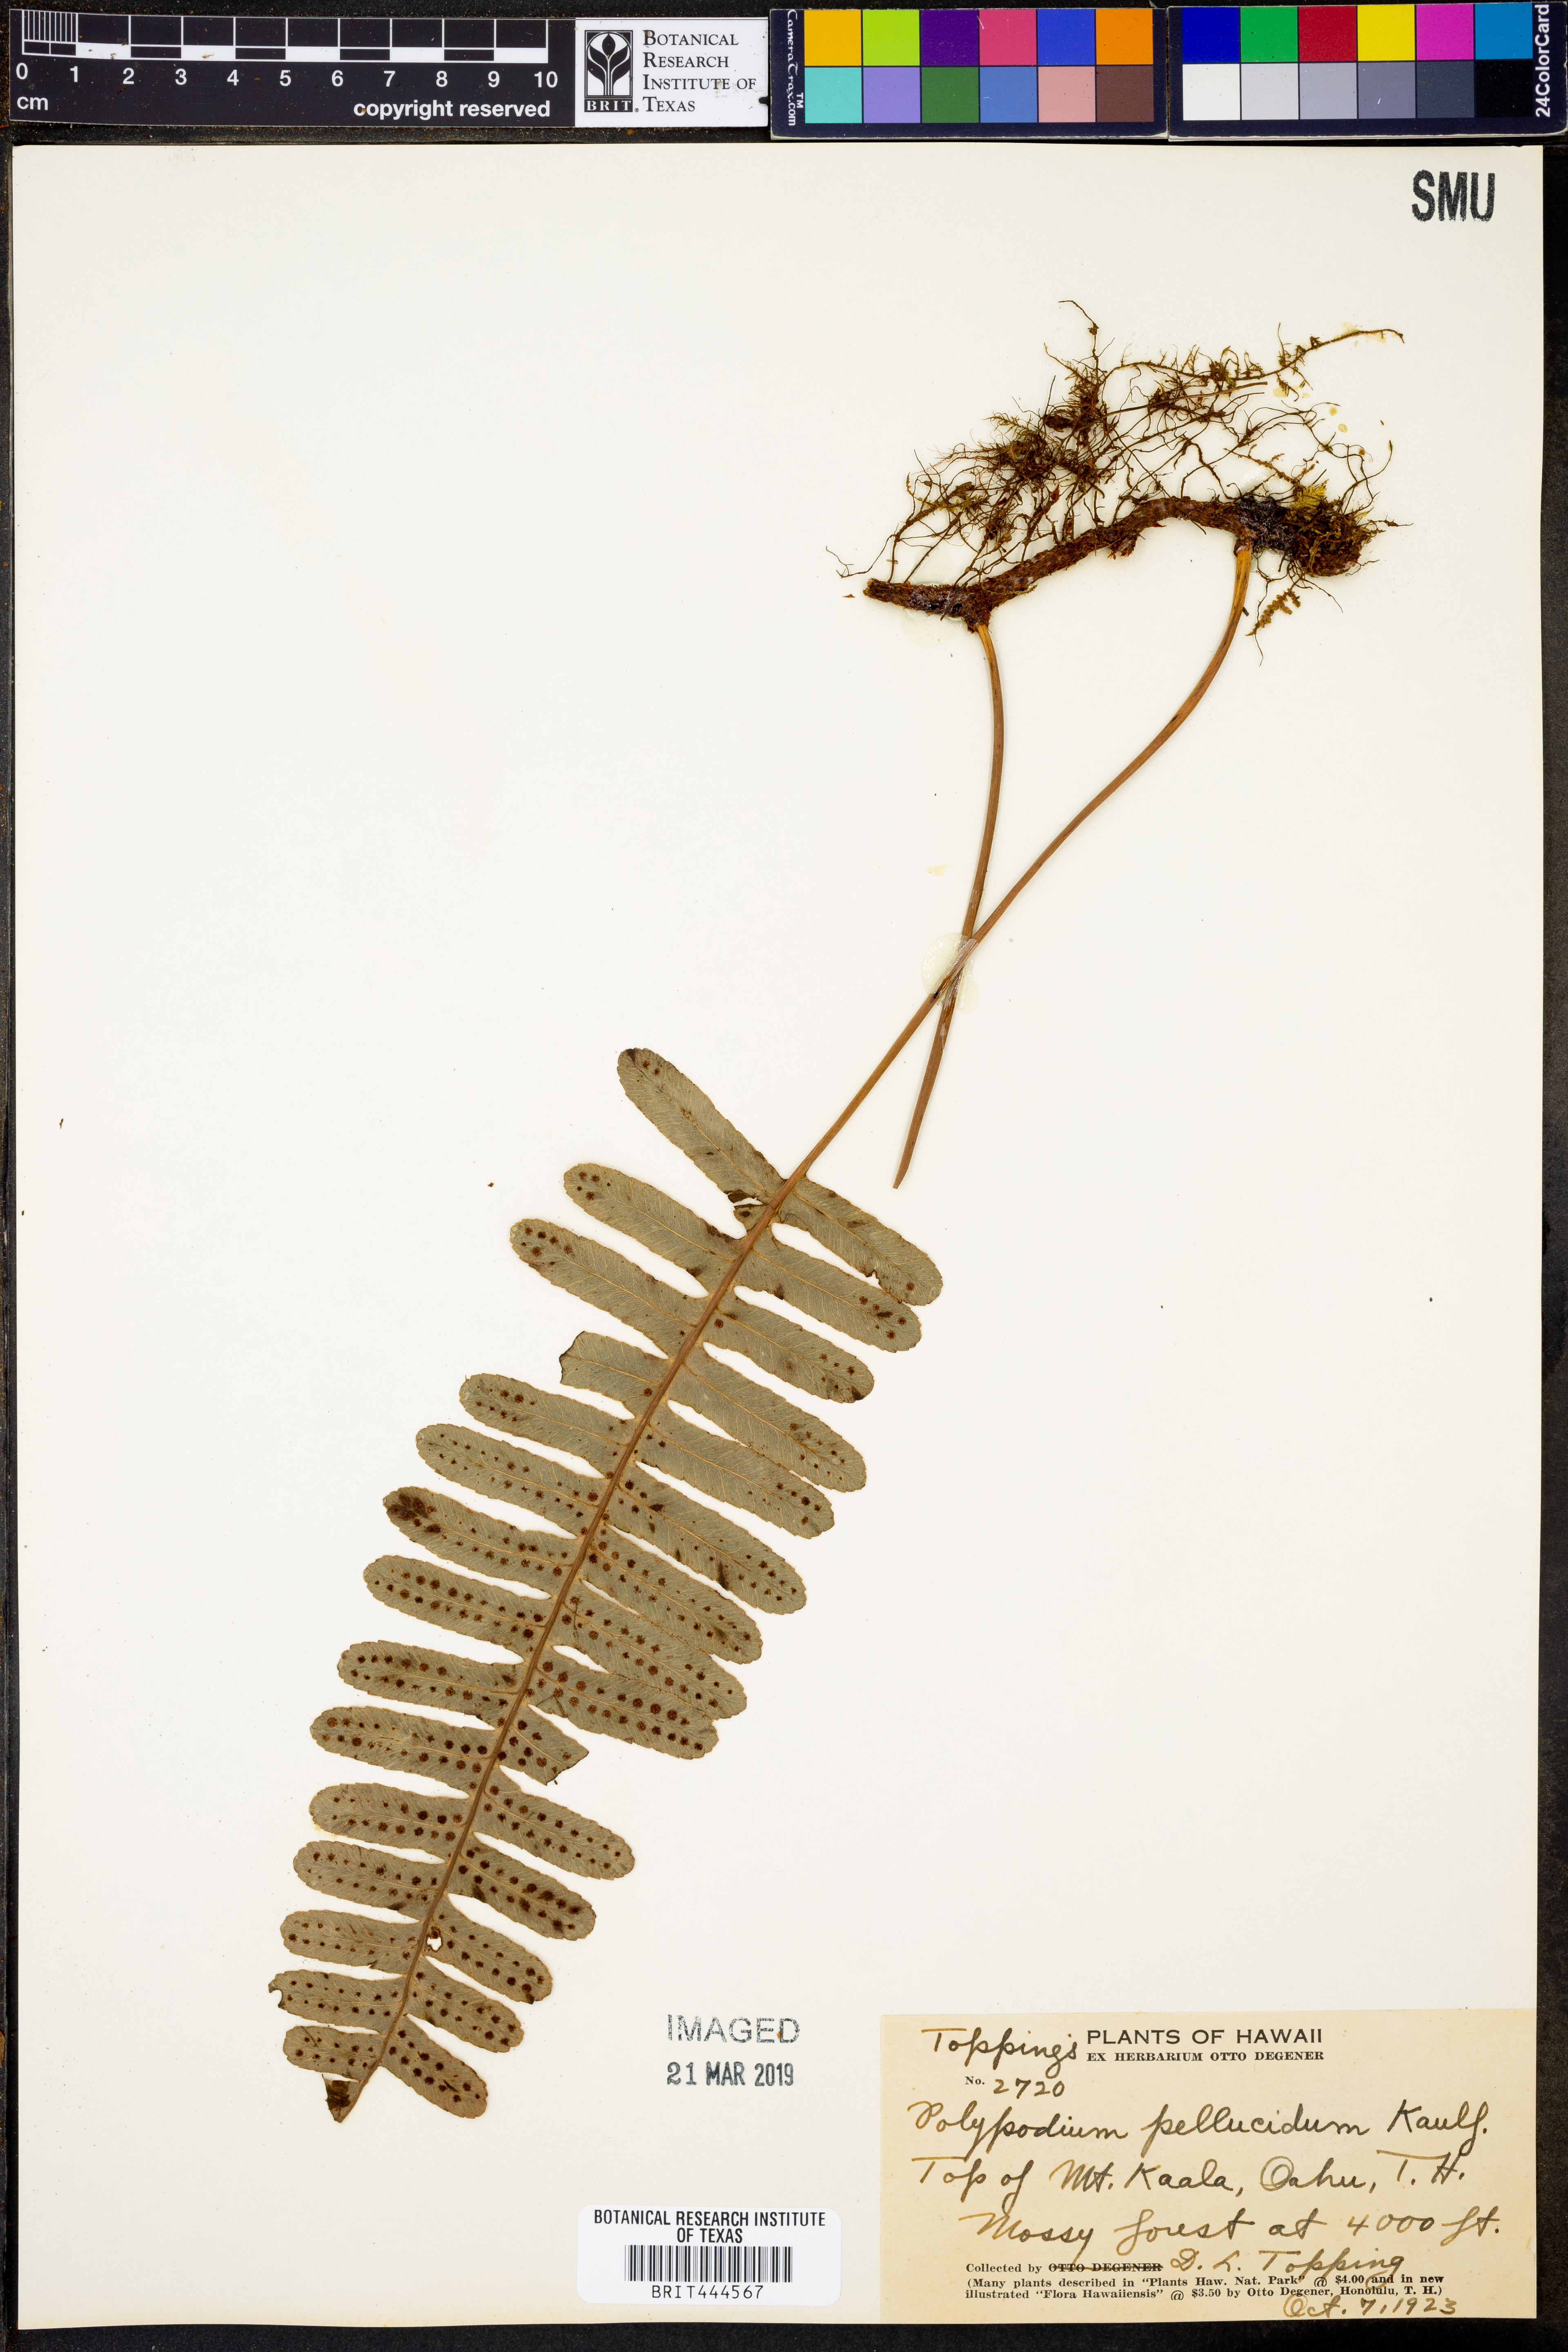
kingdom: Plantae
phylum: Tracheophyta
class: Polypodiopsida
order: Polypodiales
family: Polypodiaceae
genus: Polypodium
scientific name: Polypodium pellucidum
